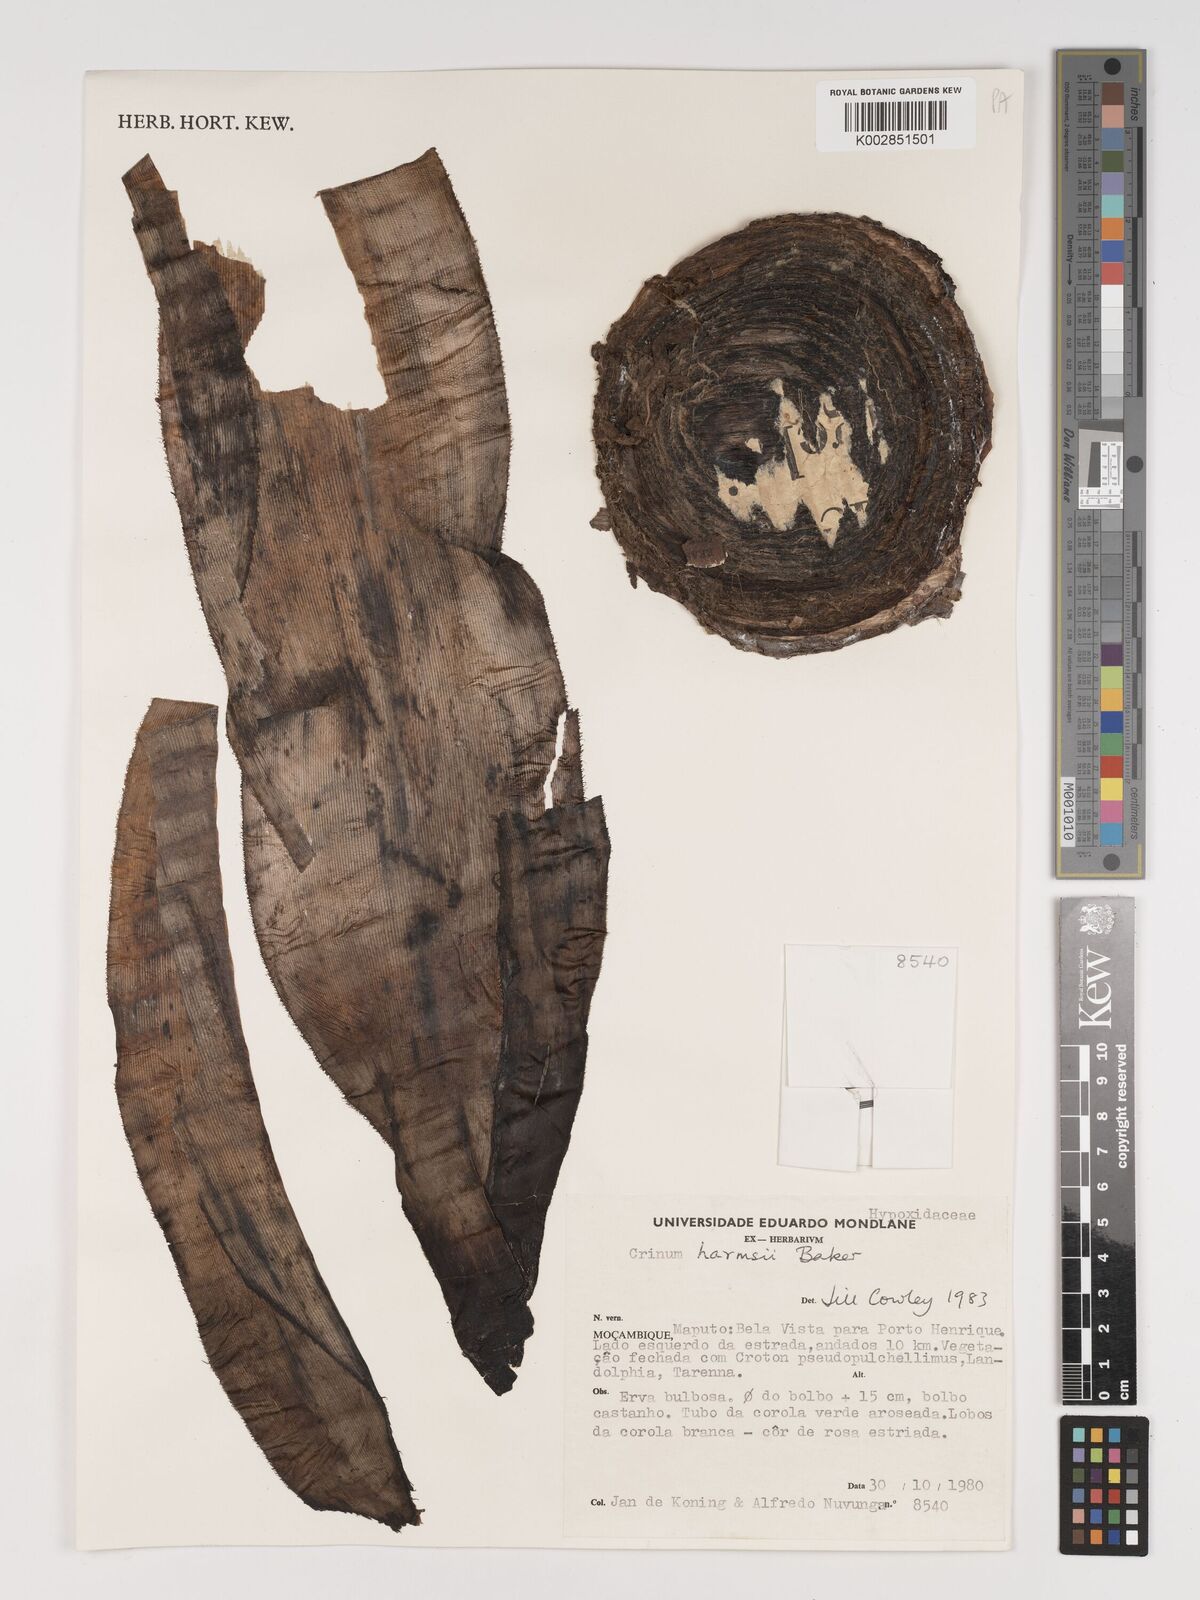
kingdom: Plantae
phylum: Tracheophyta
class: Liliopsida
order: Asparagales
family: Amaryllidaceae
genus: Crinum
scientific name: Crinum stuhlmannii
